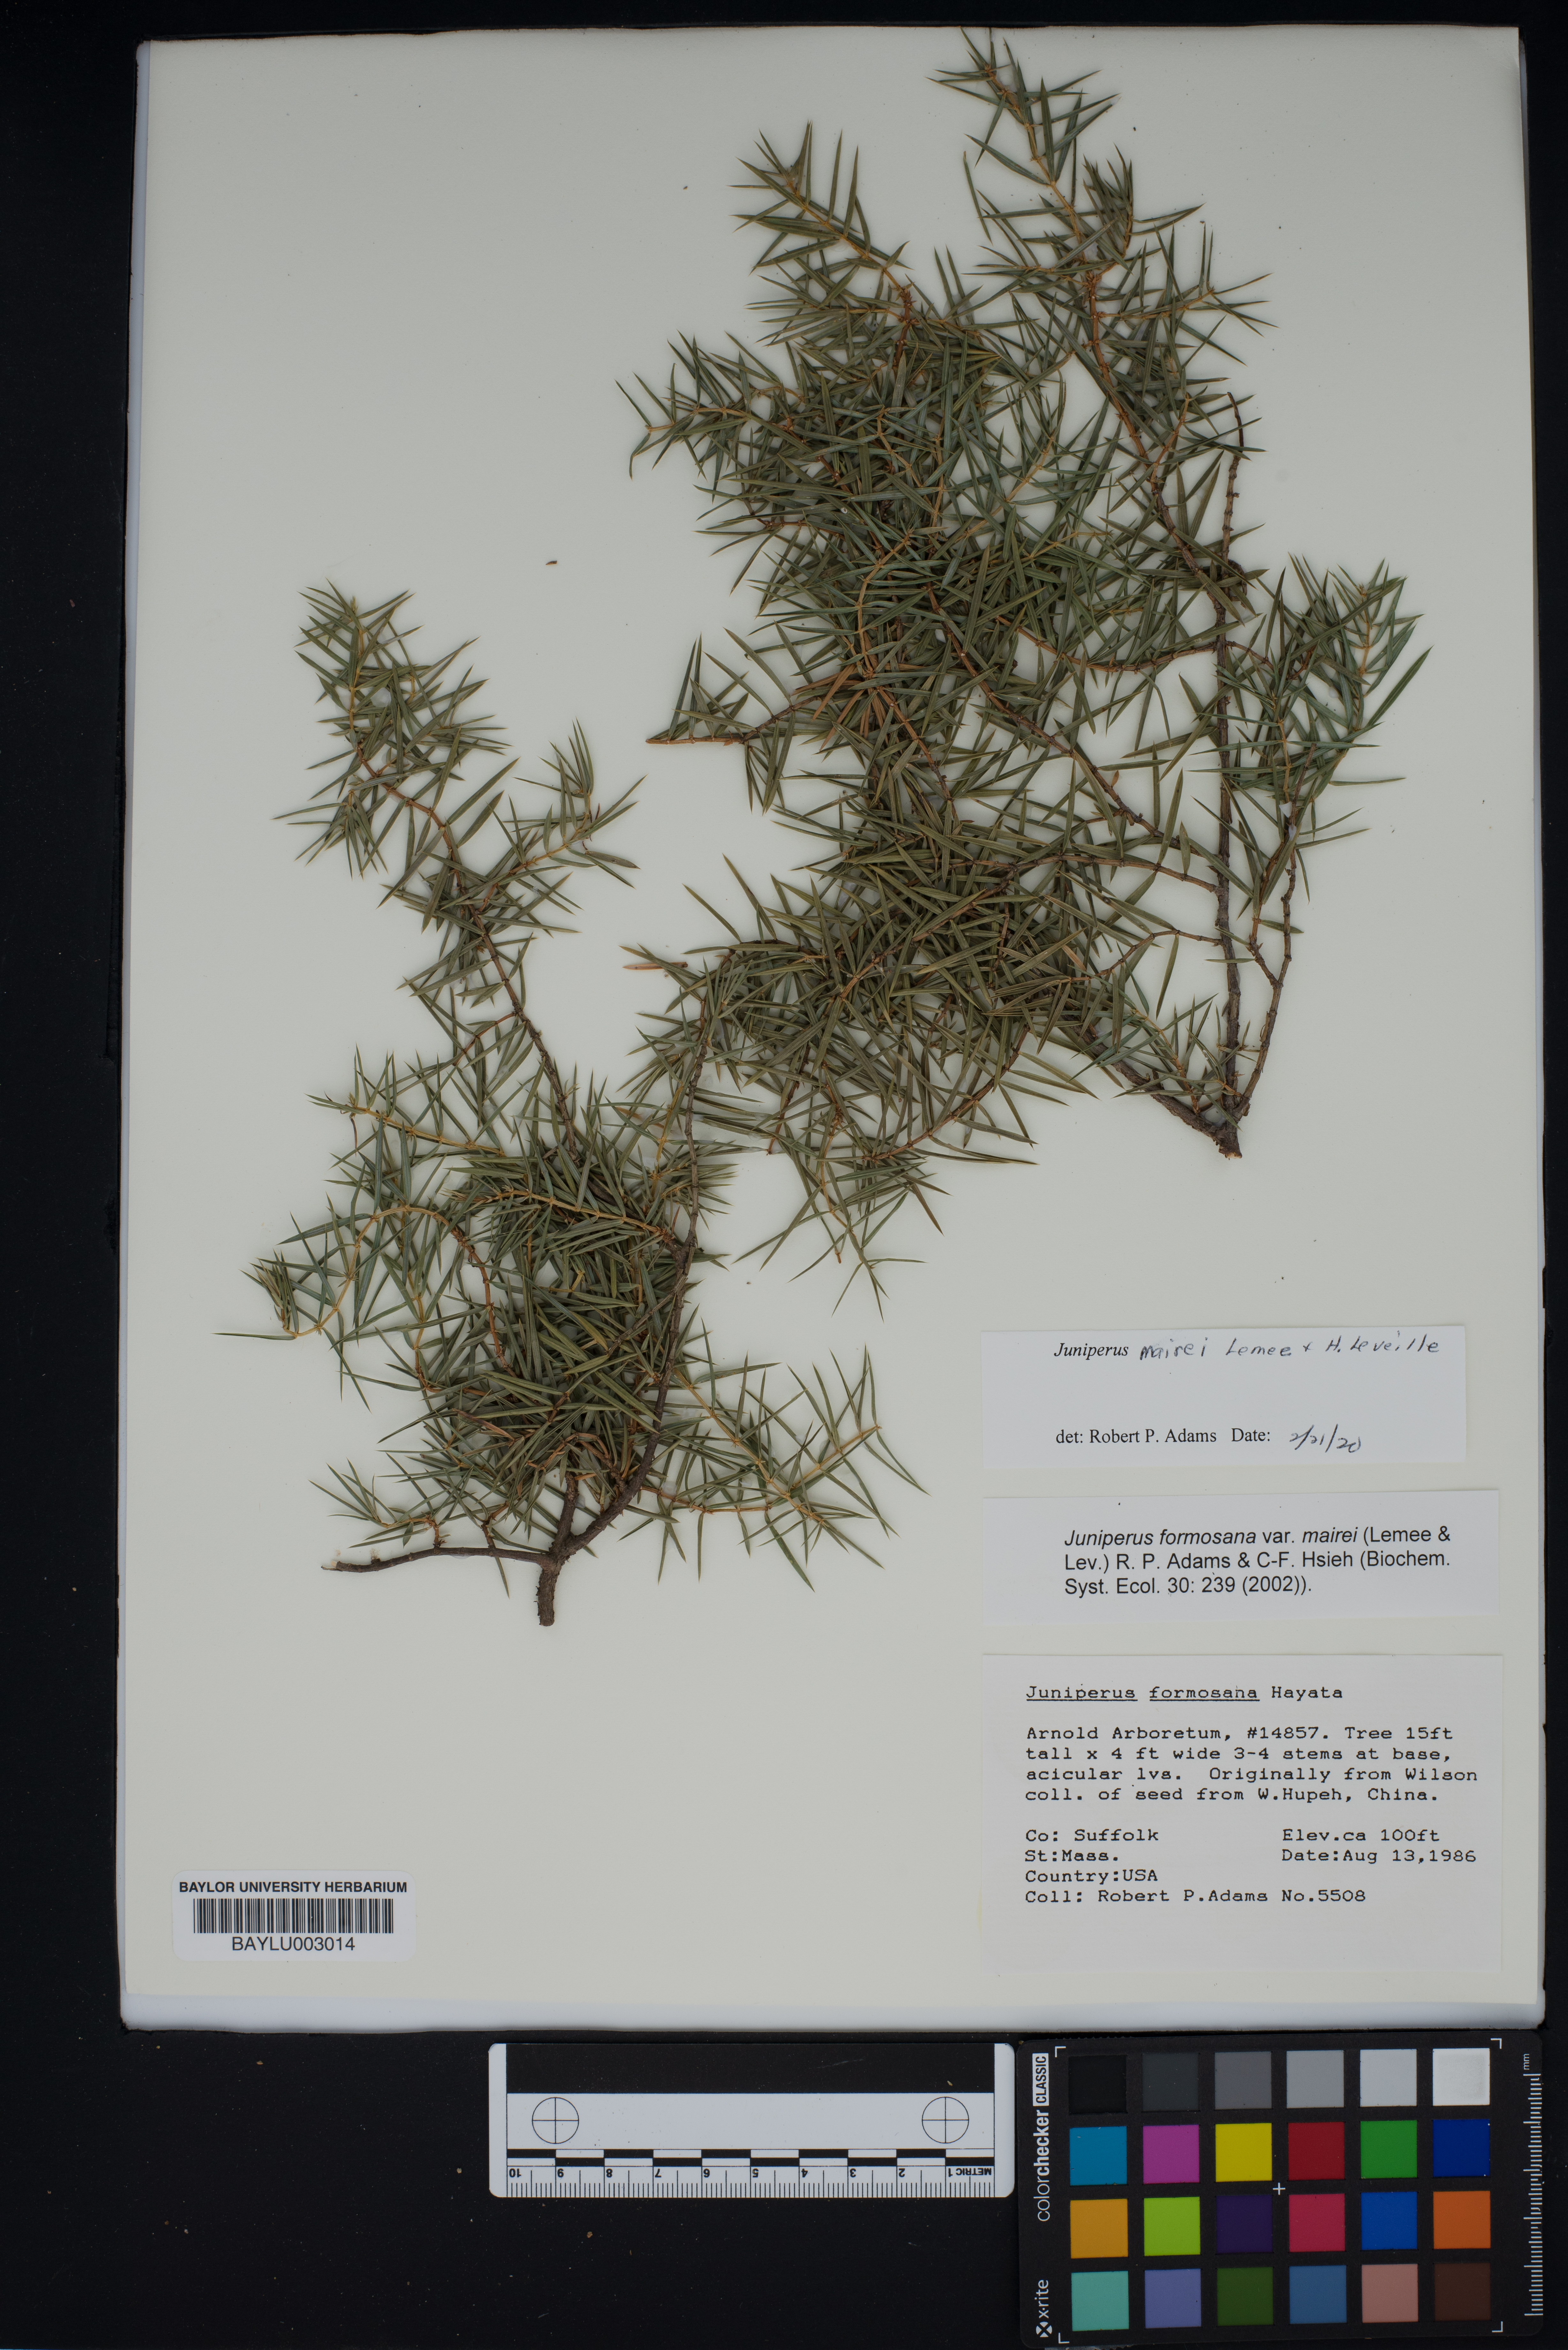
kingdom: Plantae
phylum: Tracheophyta
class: Pinopsida
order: Pinales
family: Cupressaceae
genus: Juniperus
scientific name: Juniperus formosana
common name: Formosan juniper
